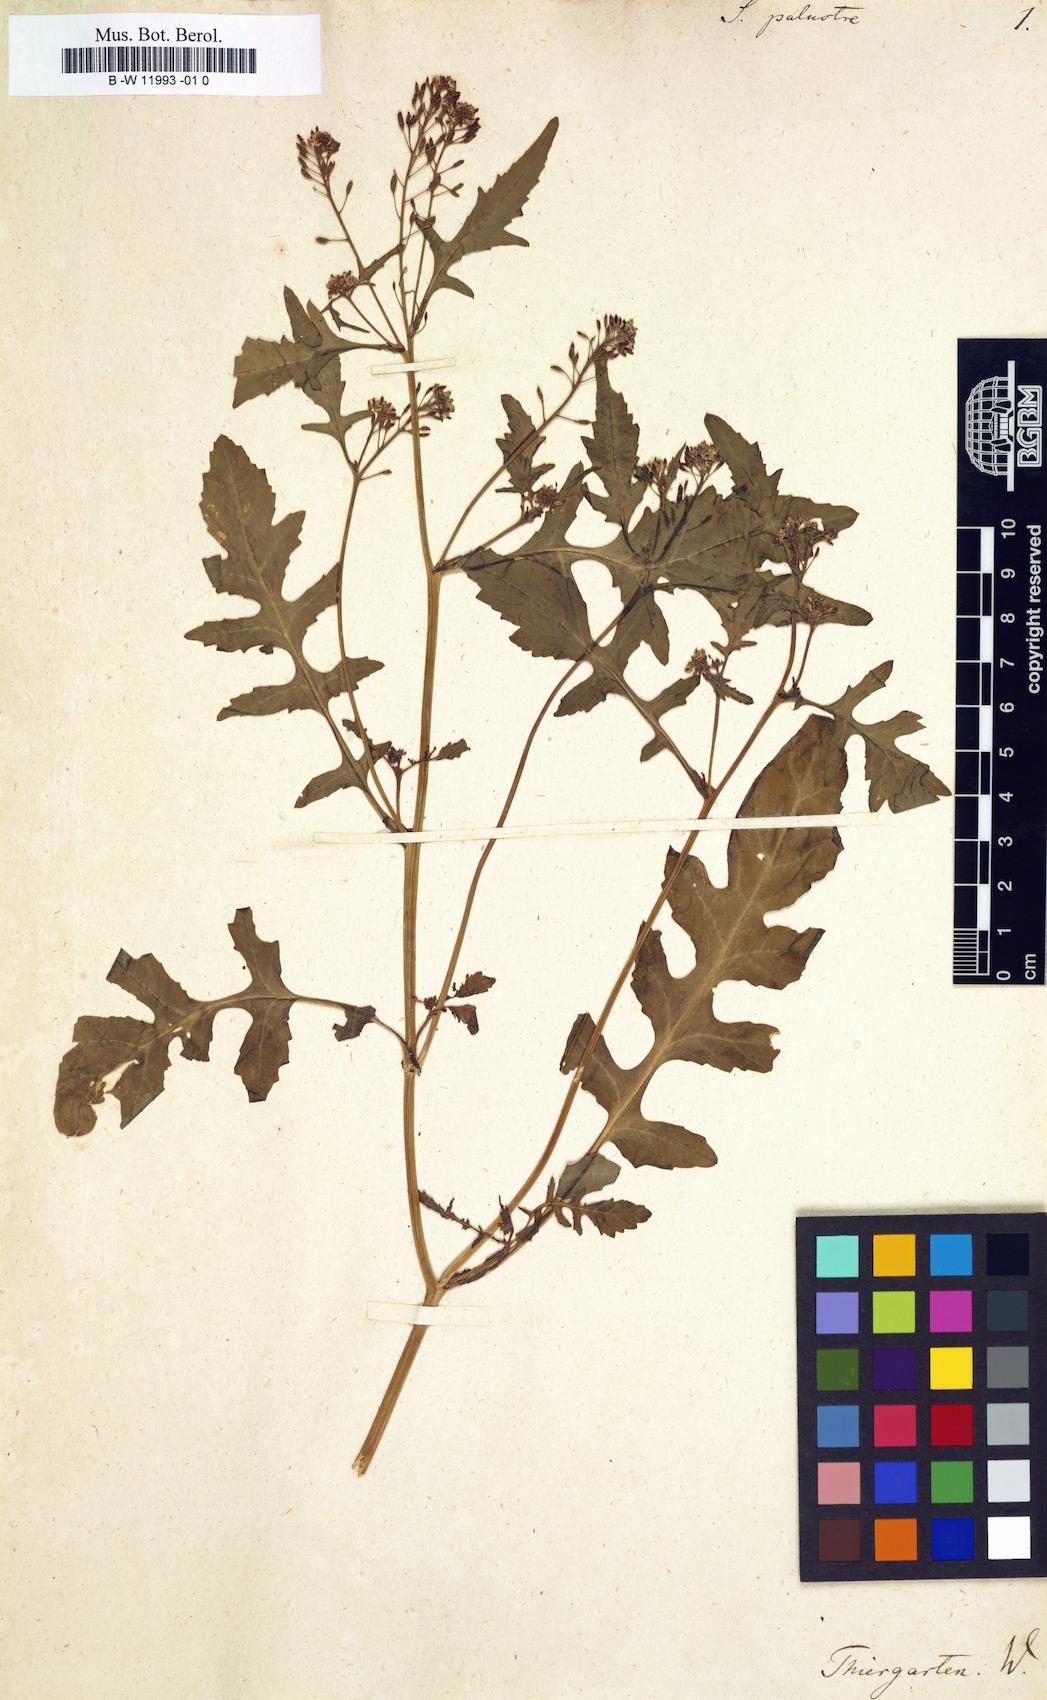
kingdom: Plantae
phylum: Tracheophyta
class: Magnoliopsida
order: Brassicales
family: Brassicaceae
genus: Rorippa
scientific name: Rorippa palustris
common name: Marsh yellow-cress
